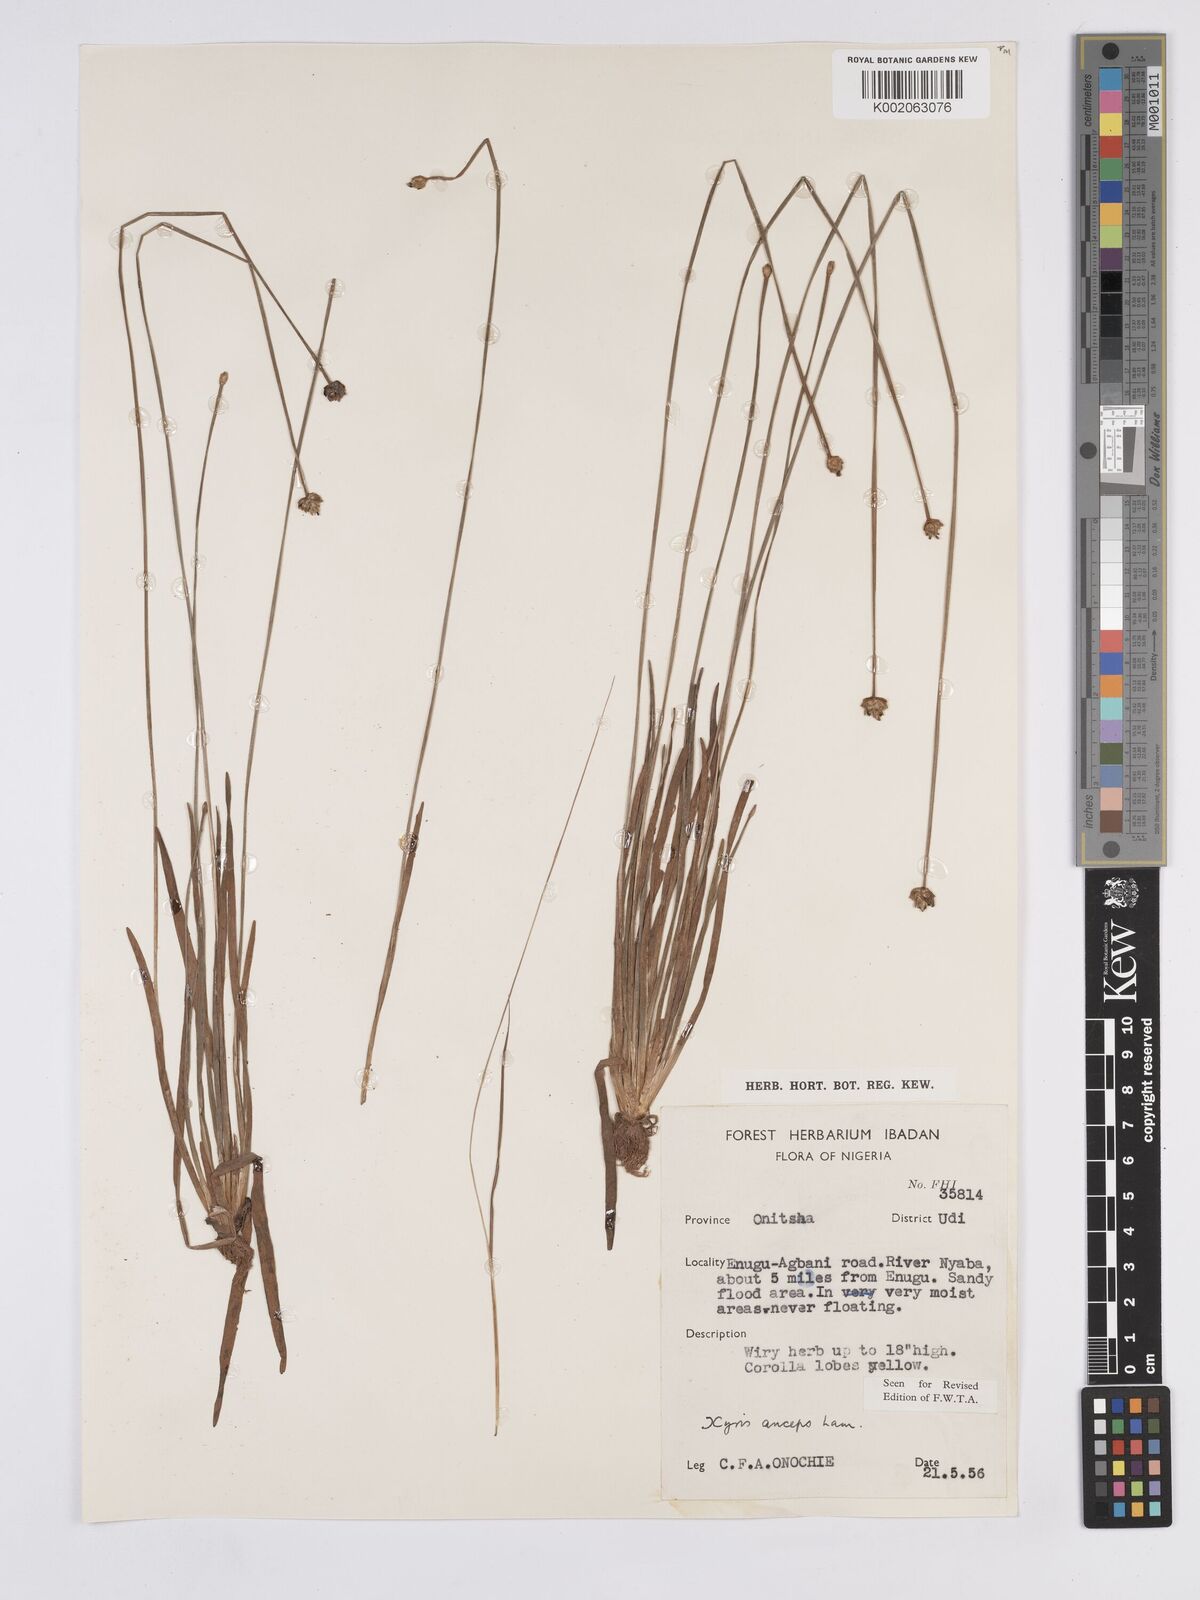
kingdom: Plantae
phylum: Tracheophyta
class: Liliopsida
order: Poales
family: Xyridaceae
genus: Xyris
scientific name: Xyris anceps
